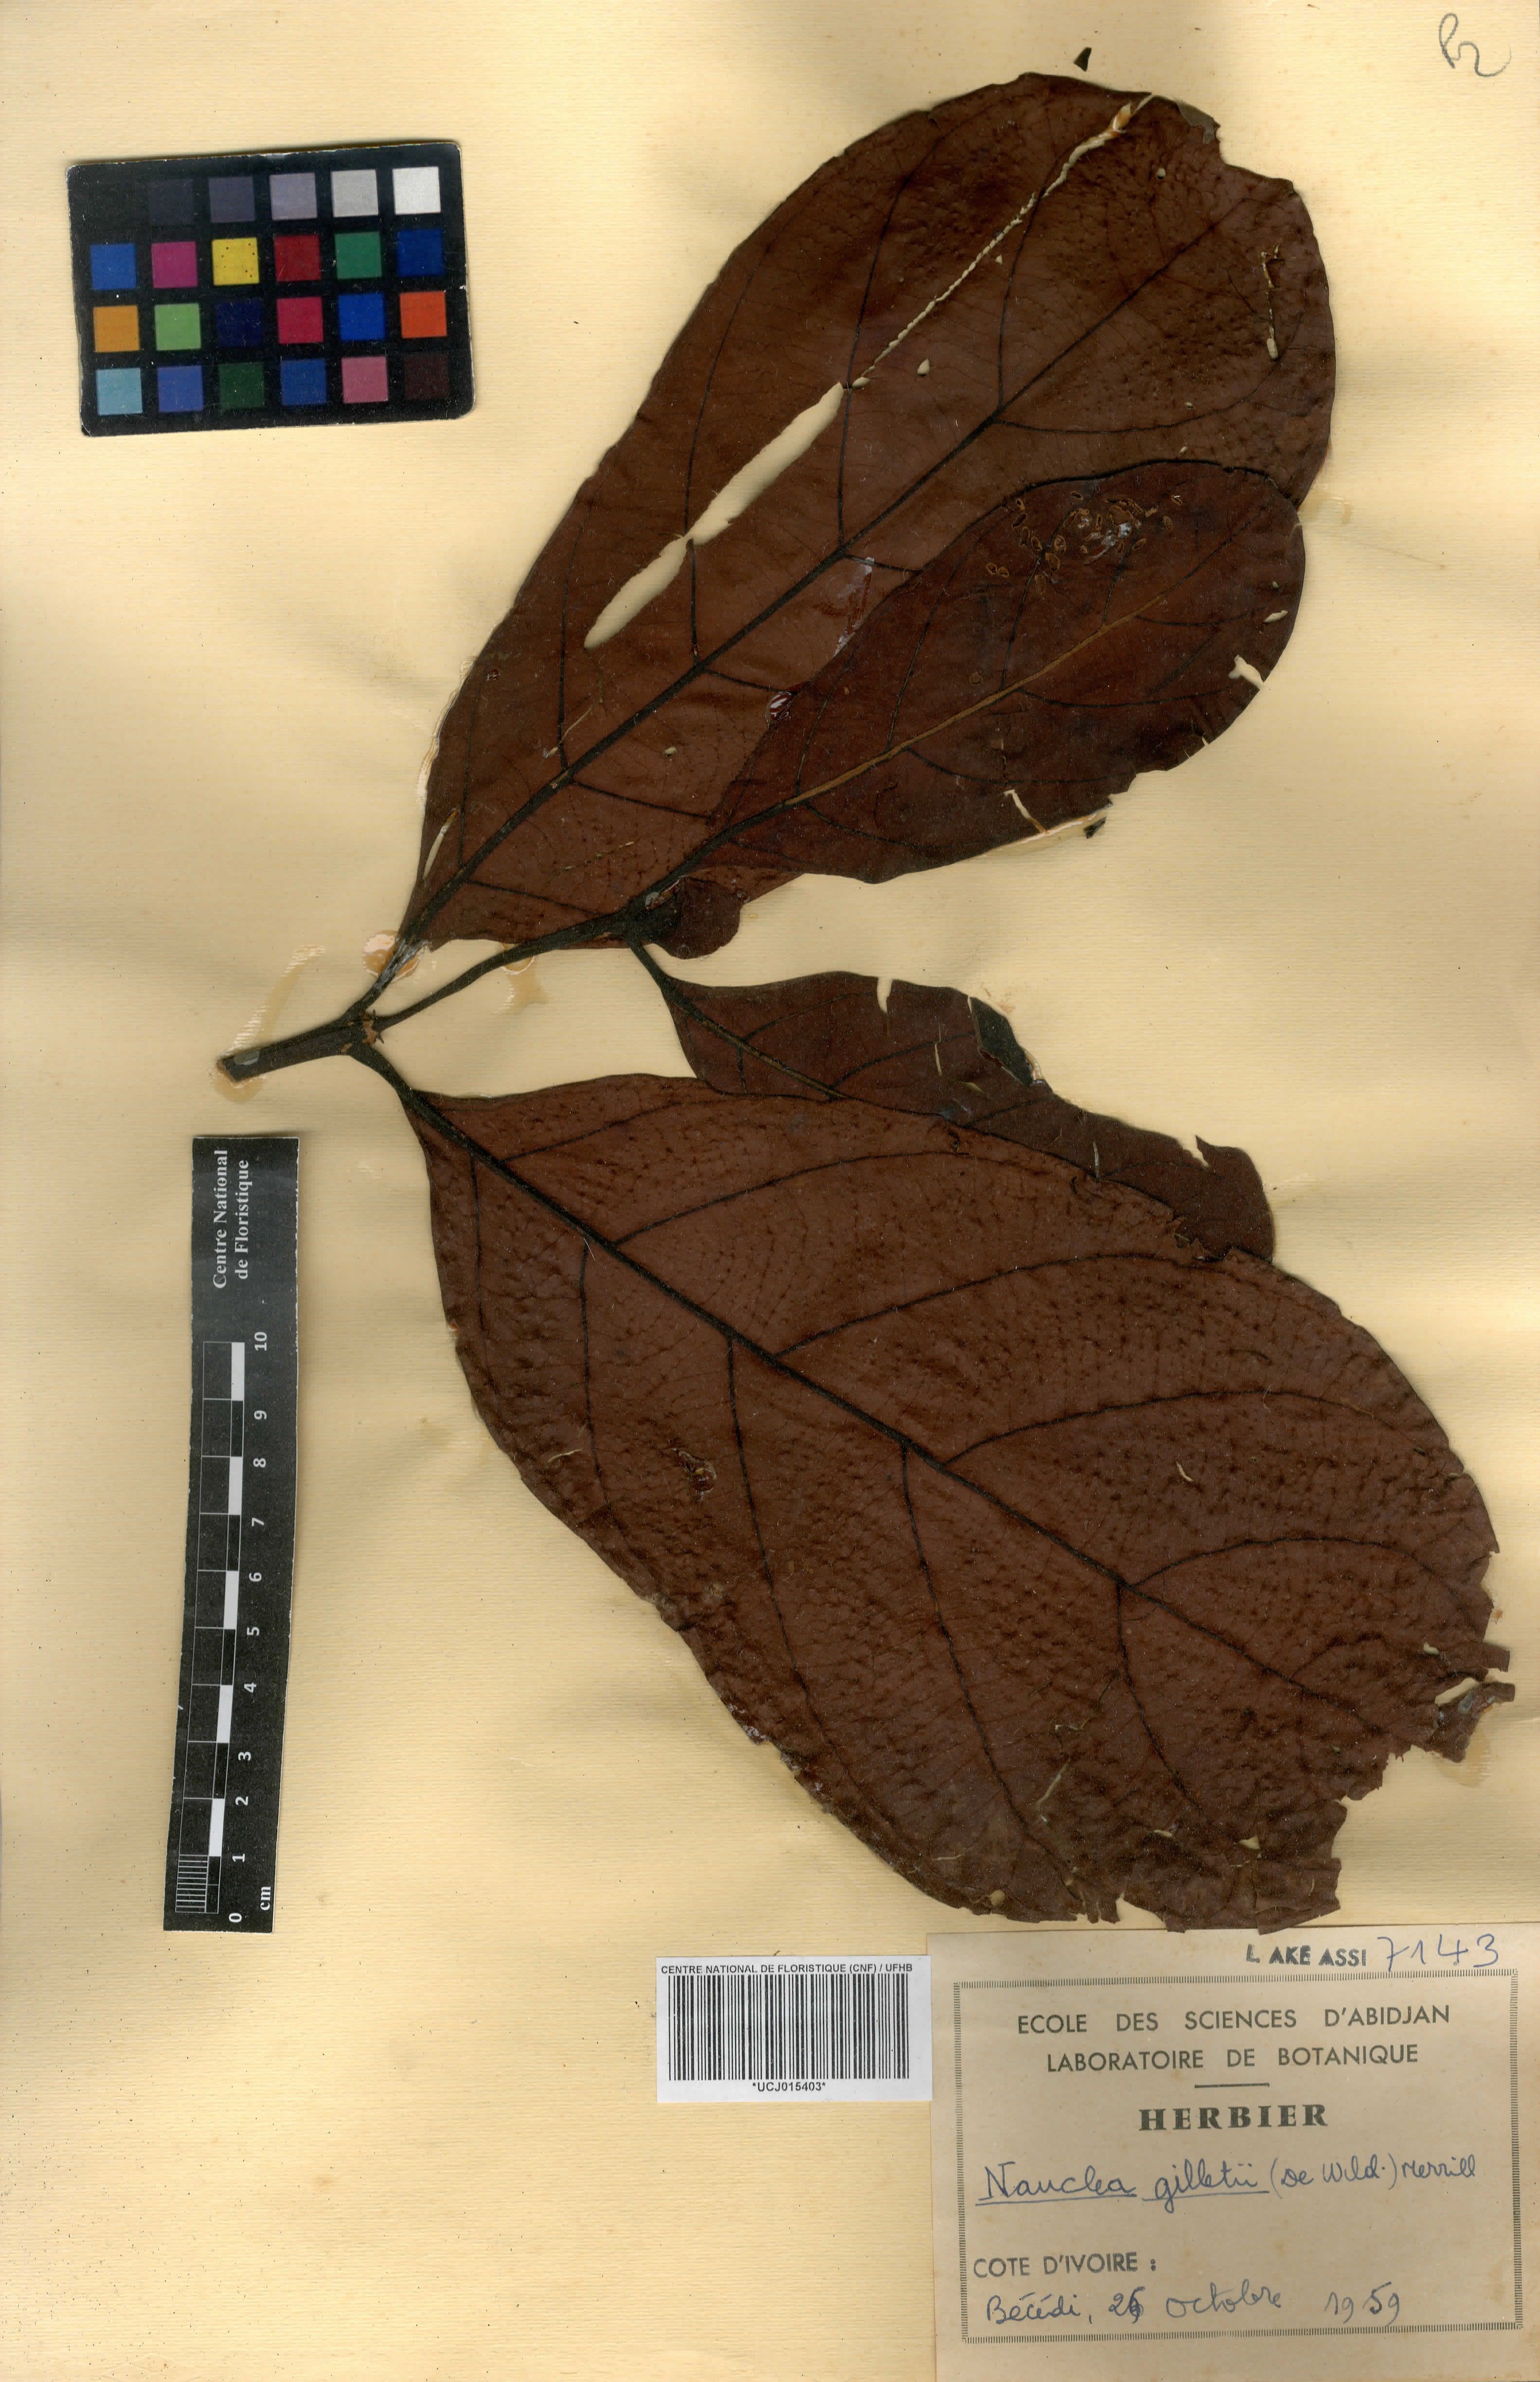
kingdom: Plantae
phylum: Tracheophyta
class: Magnoliopsida
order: Gentianales
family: Rubiaceae
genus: Nauclea
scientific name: Nauclea gilletii
